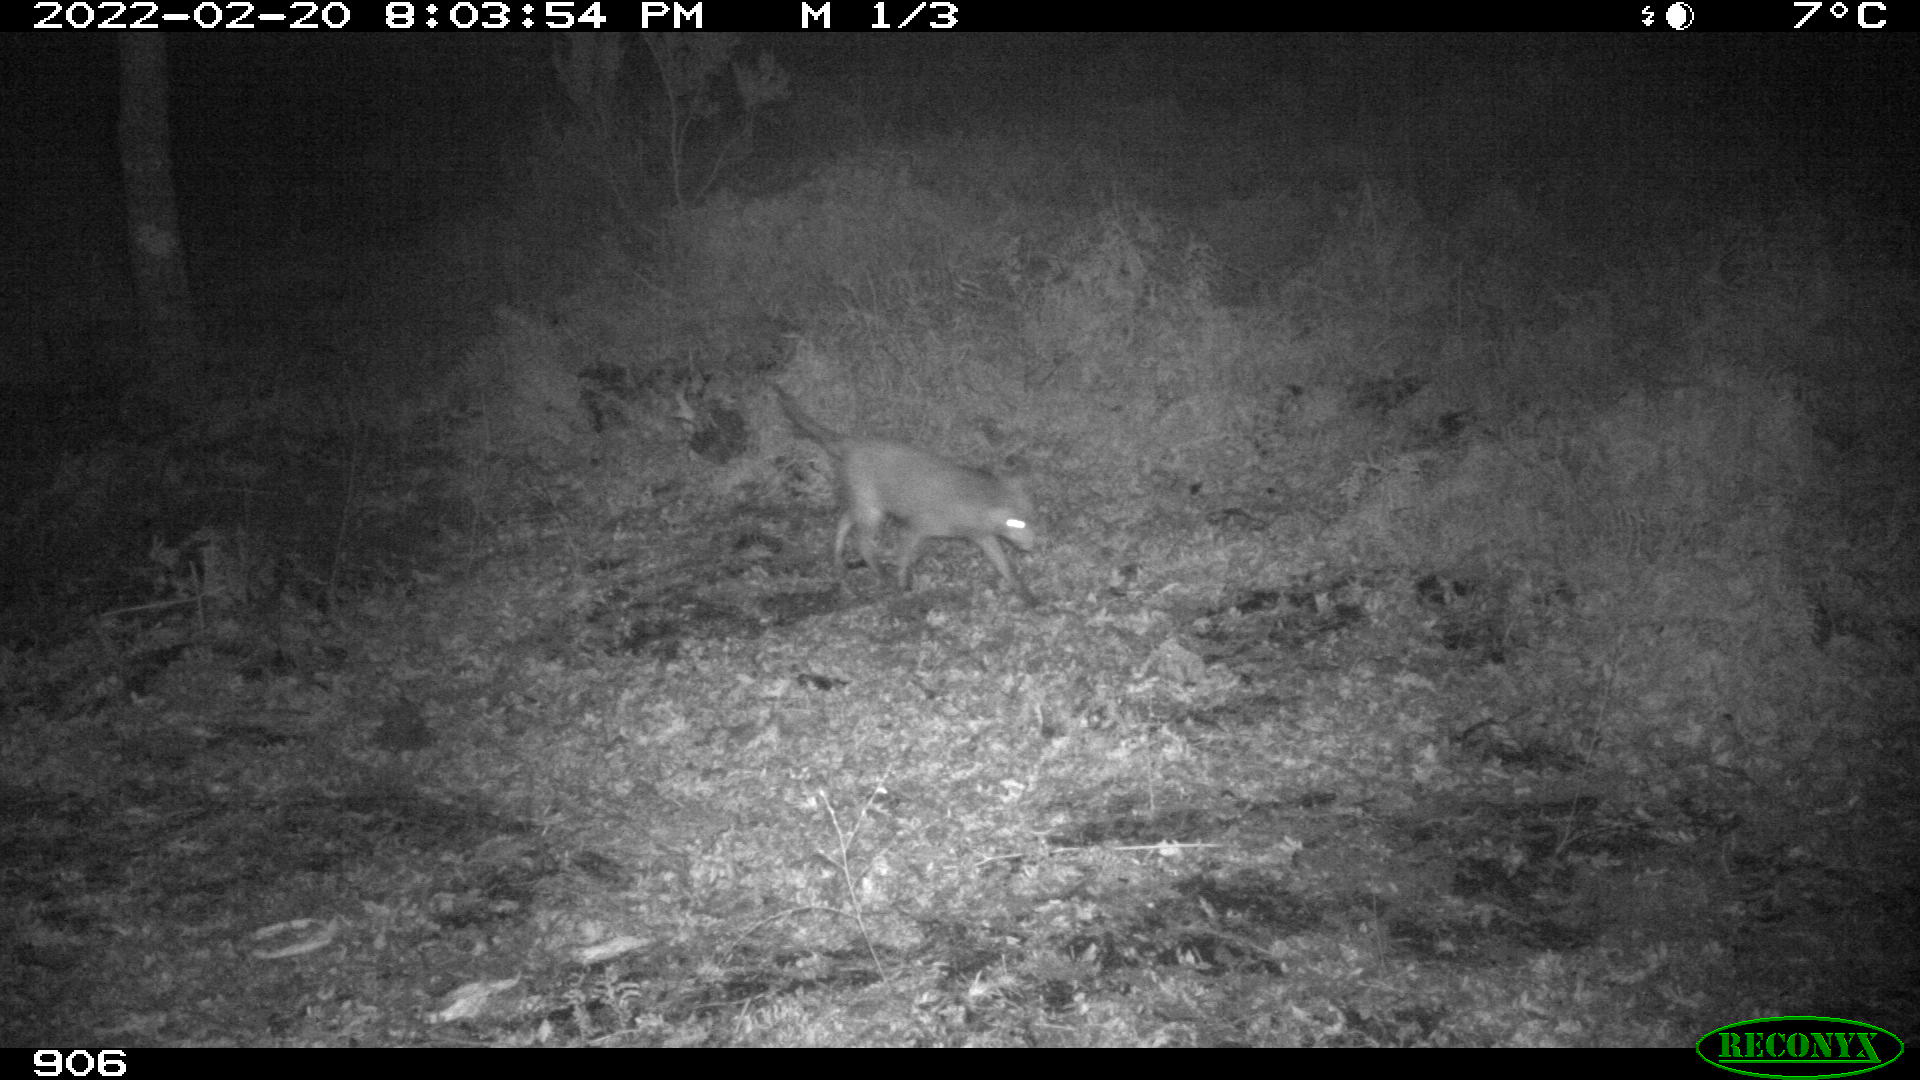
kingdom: Animalia
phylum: Chordata
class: Mammalia
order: Carnivora
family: Canidae
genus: Vulpes
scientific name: Vulpes vulpes
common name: Red fox
